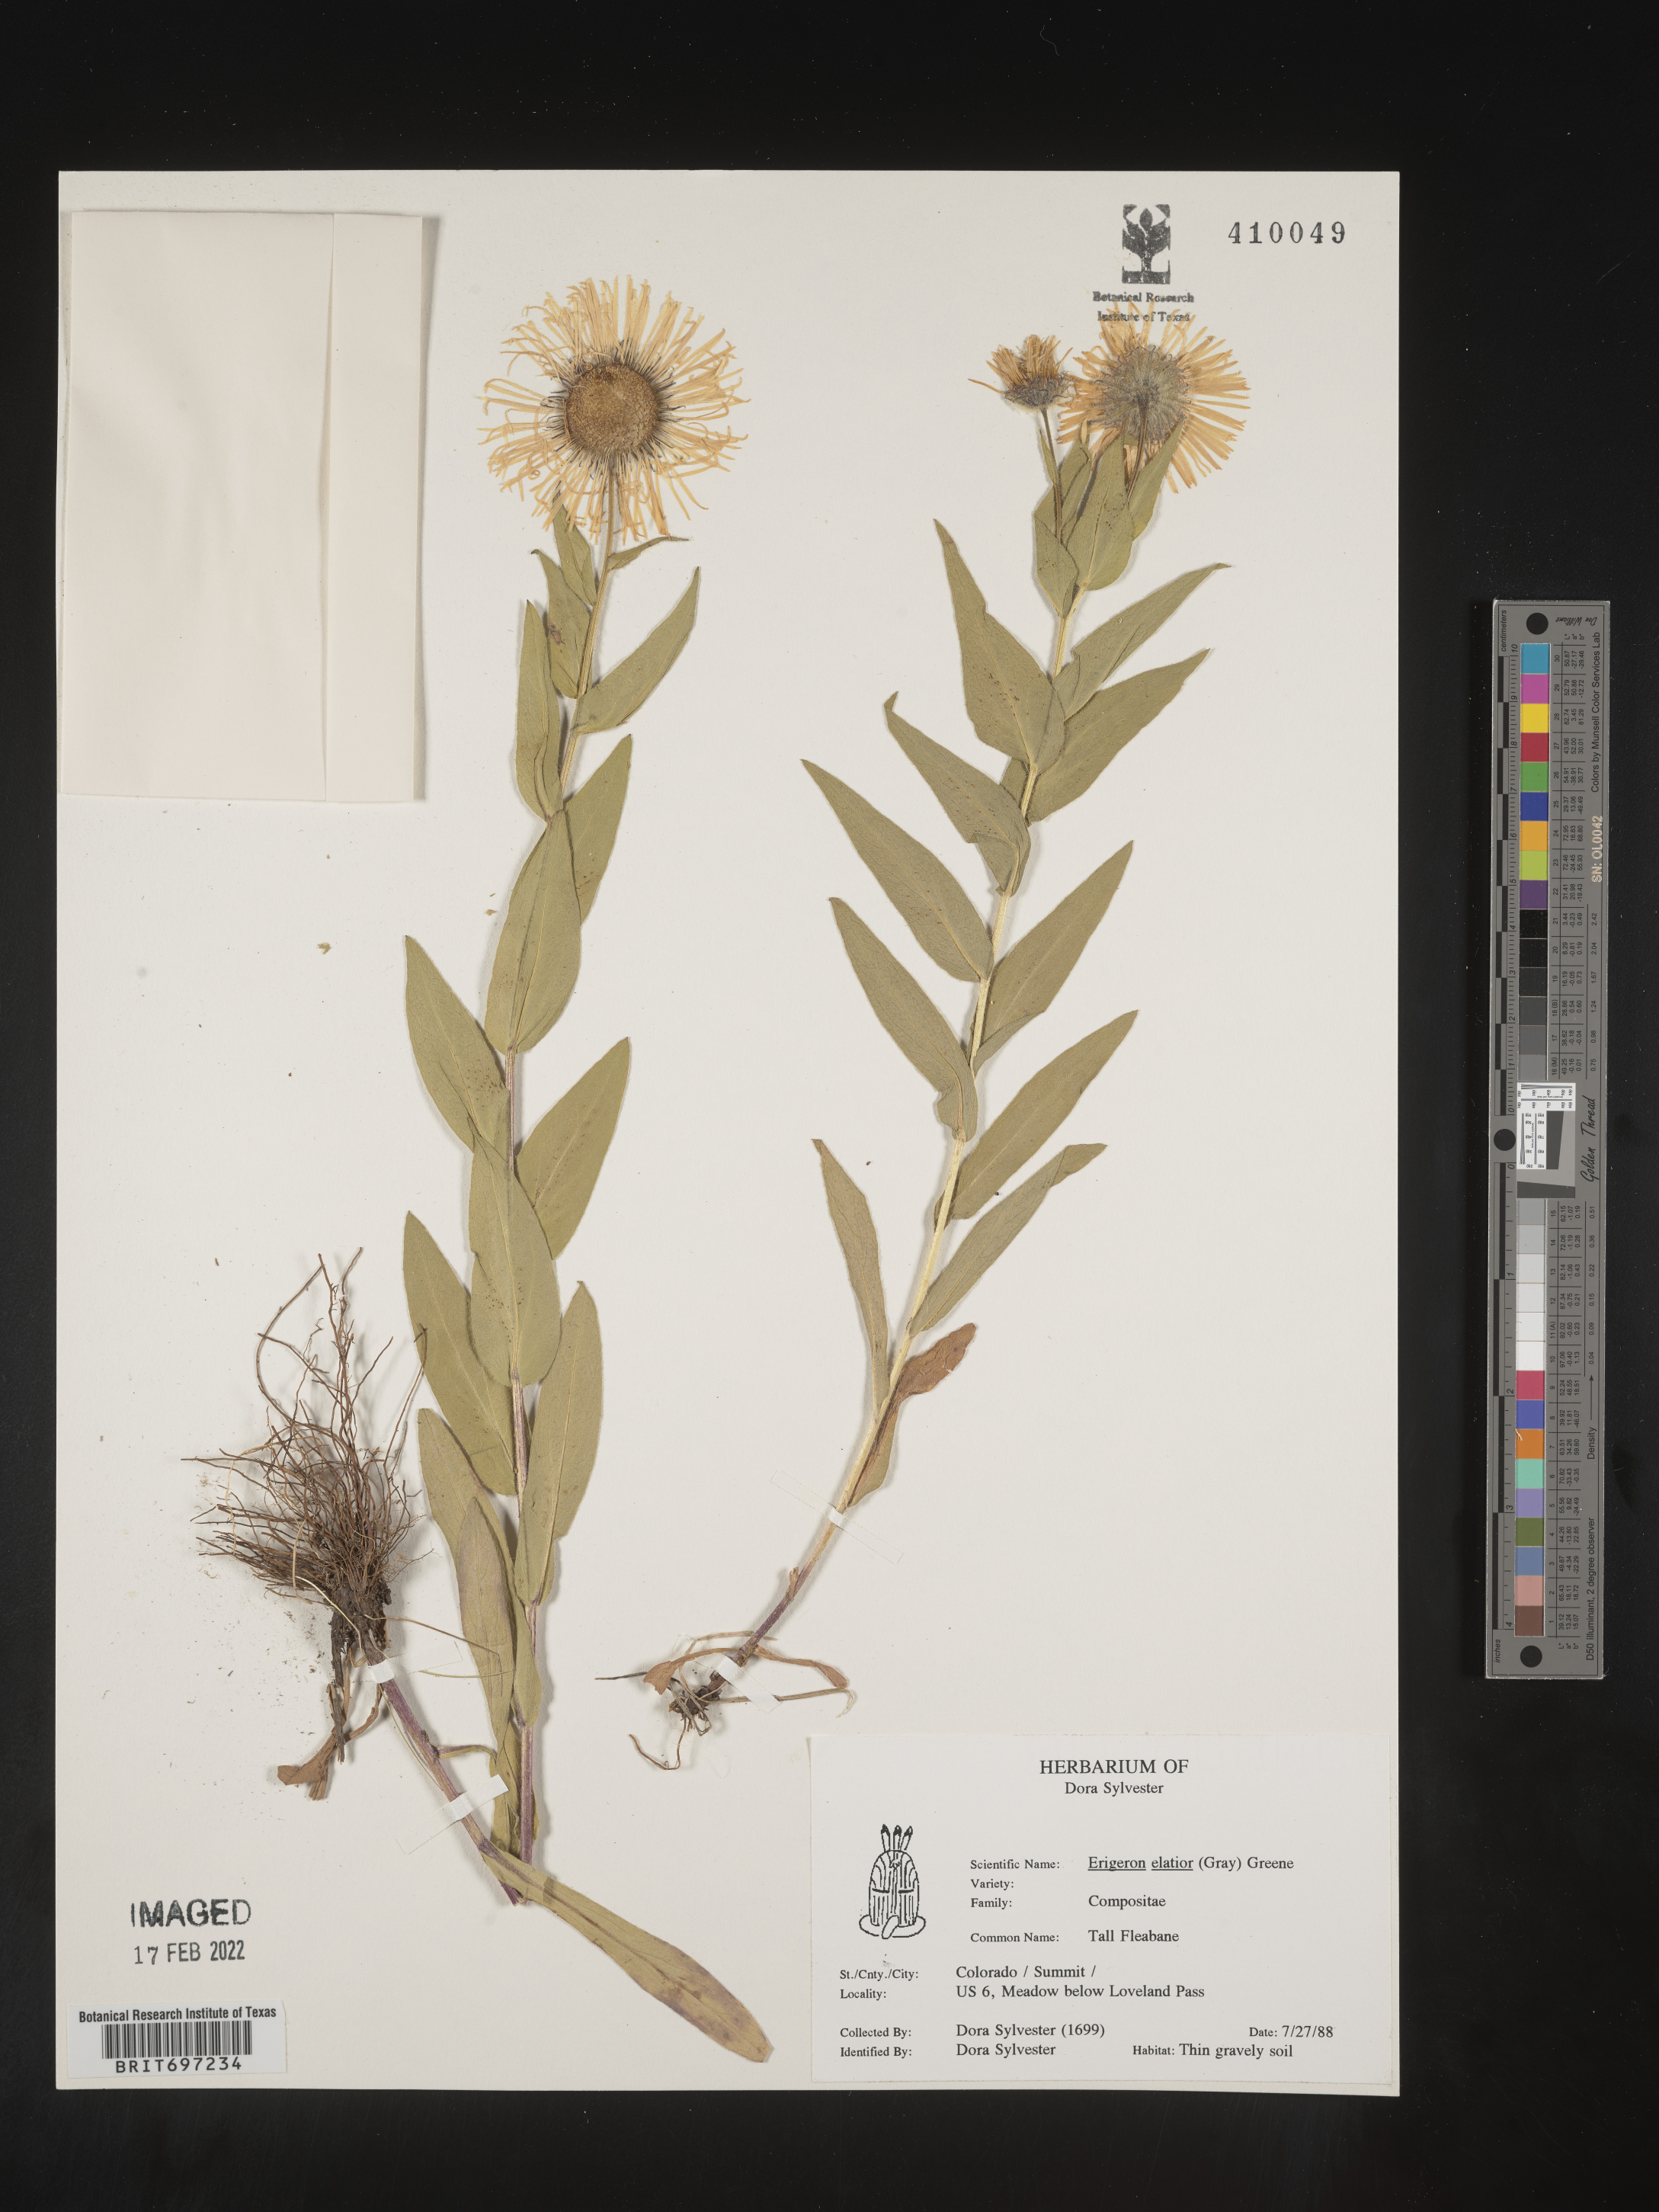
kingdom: Plantae
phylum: Tracheophyta
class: Magnoliopsida
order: Asterales
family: Asteraceae
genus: Erigeron
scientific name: Erigeron elatior
